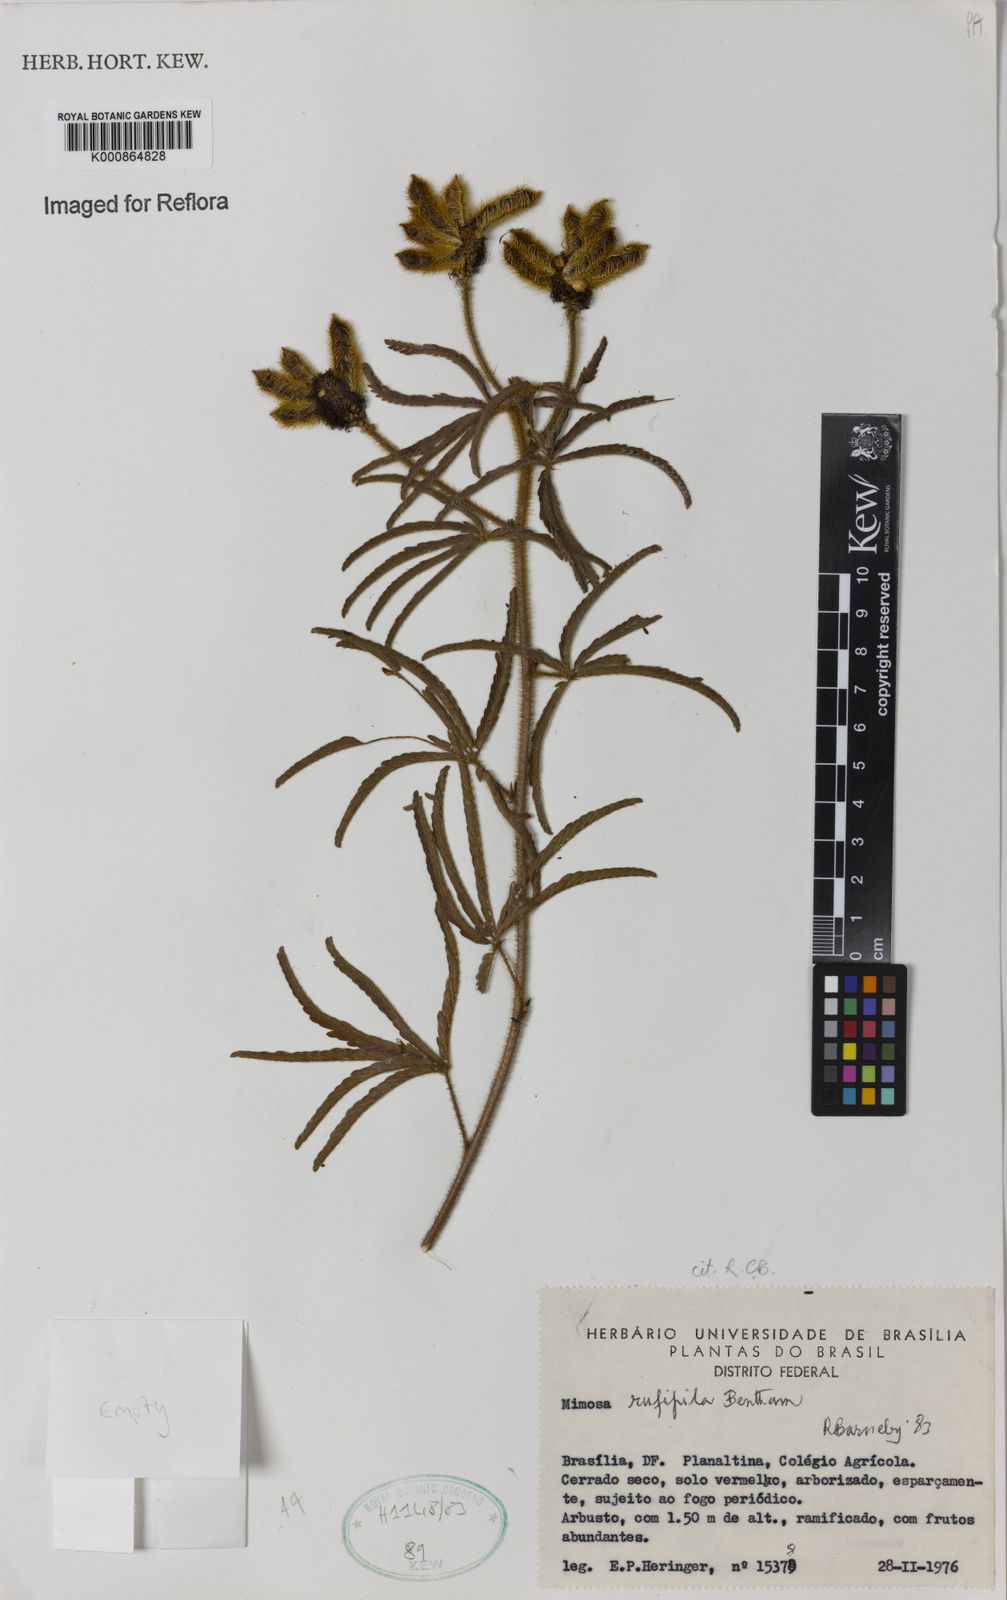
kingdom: Plantae
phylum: Tracheophyta
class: Magnoliopsida
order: Fabales
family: Fabaceae
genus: Mimosa
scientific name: Mimosa rufipila
